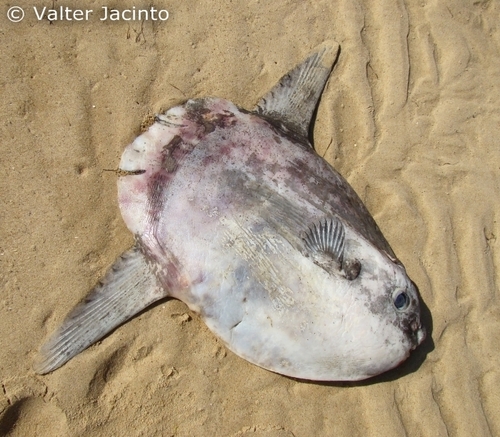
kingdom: Animalia
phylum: Chordata
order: Tetraodontiformes
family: Molidae
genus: Mola
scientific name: Mola mola
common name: Ocean sunfish
